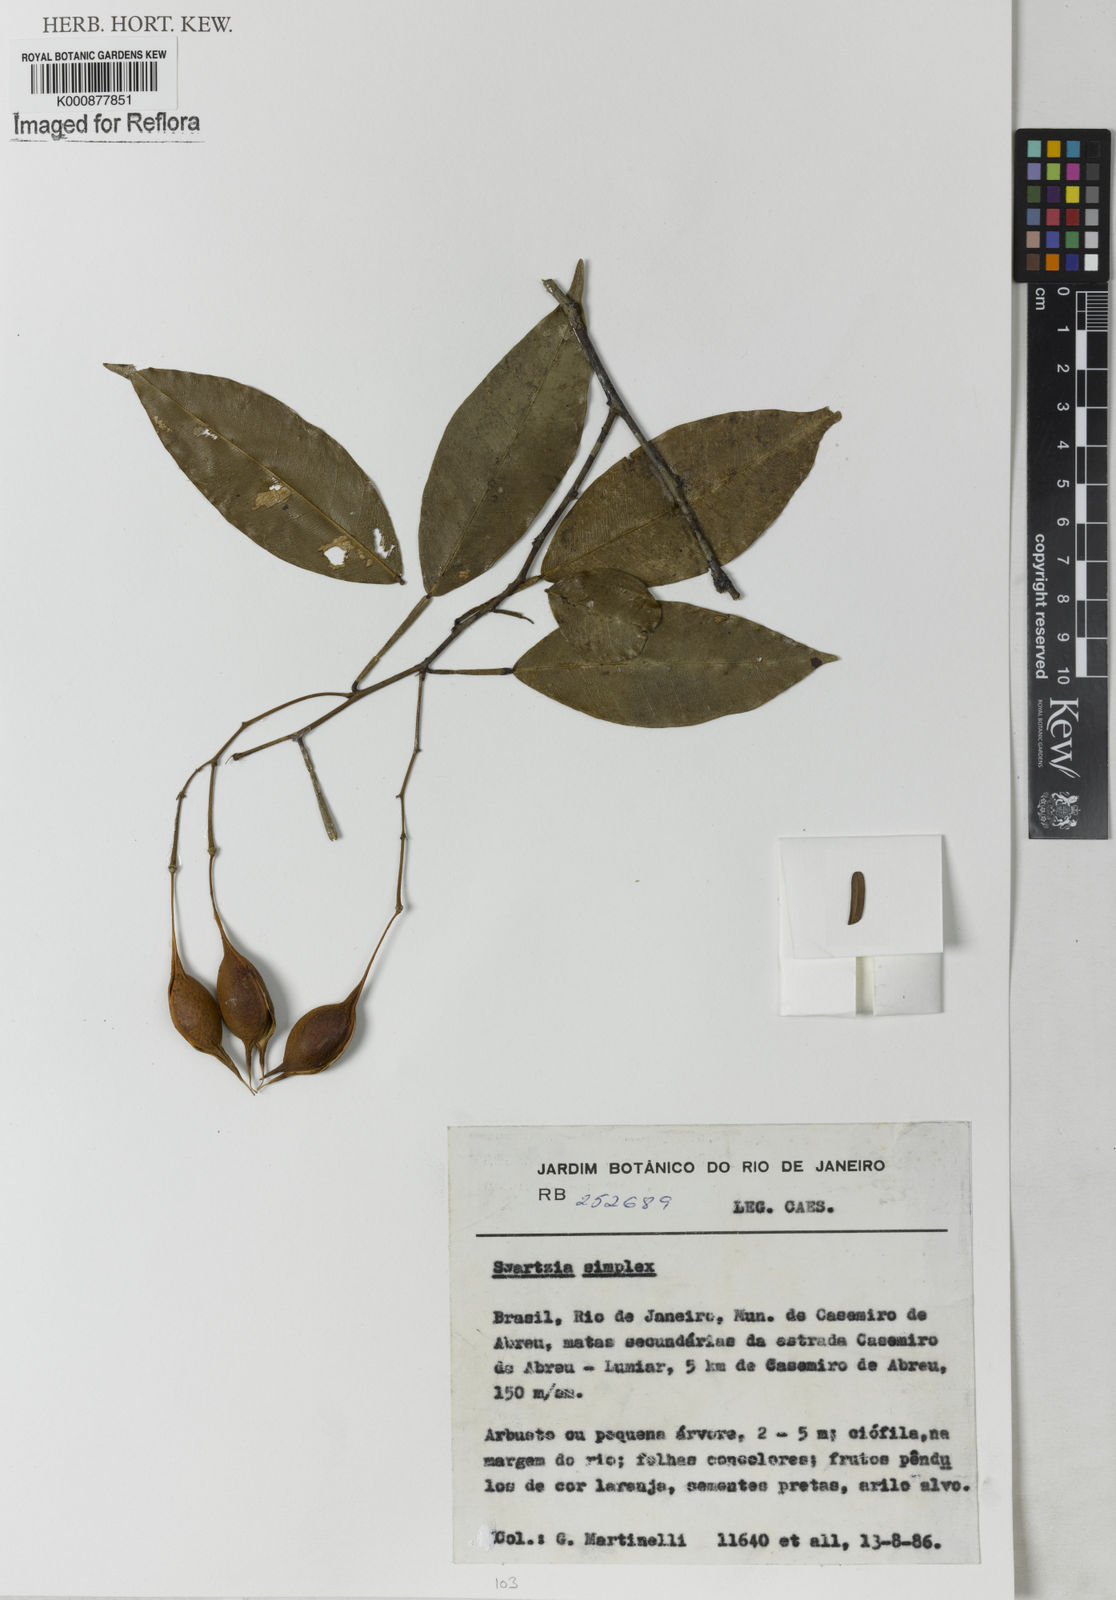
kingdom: Plantae
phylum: Tracheophyta
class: Magnoliopsida
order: Fabales
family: Fabaceae
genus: Swartzia
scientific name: Swartzia simplex
